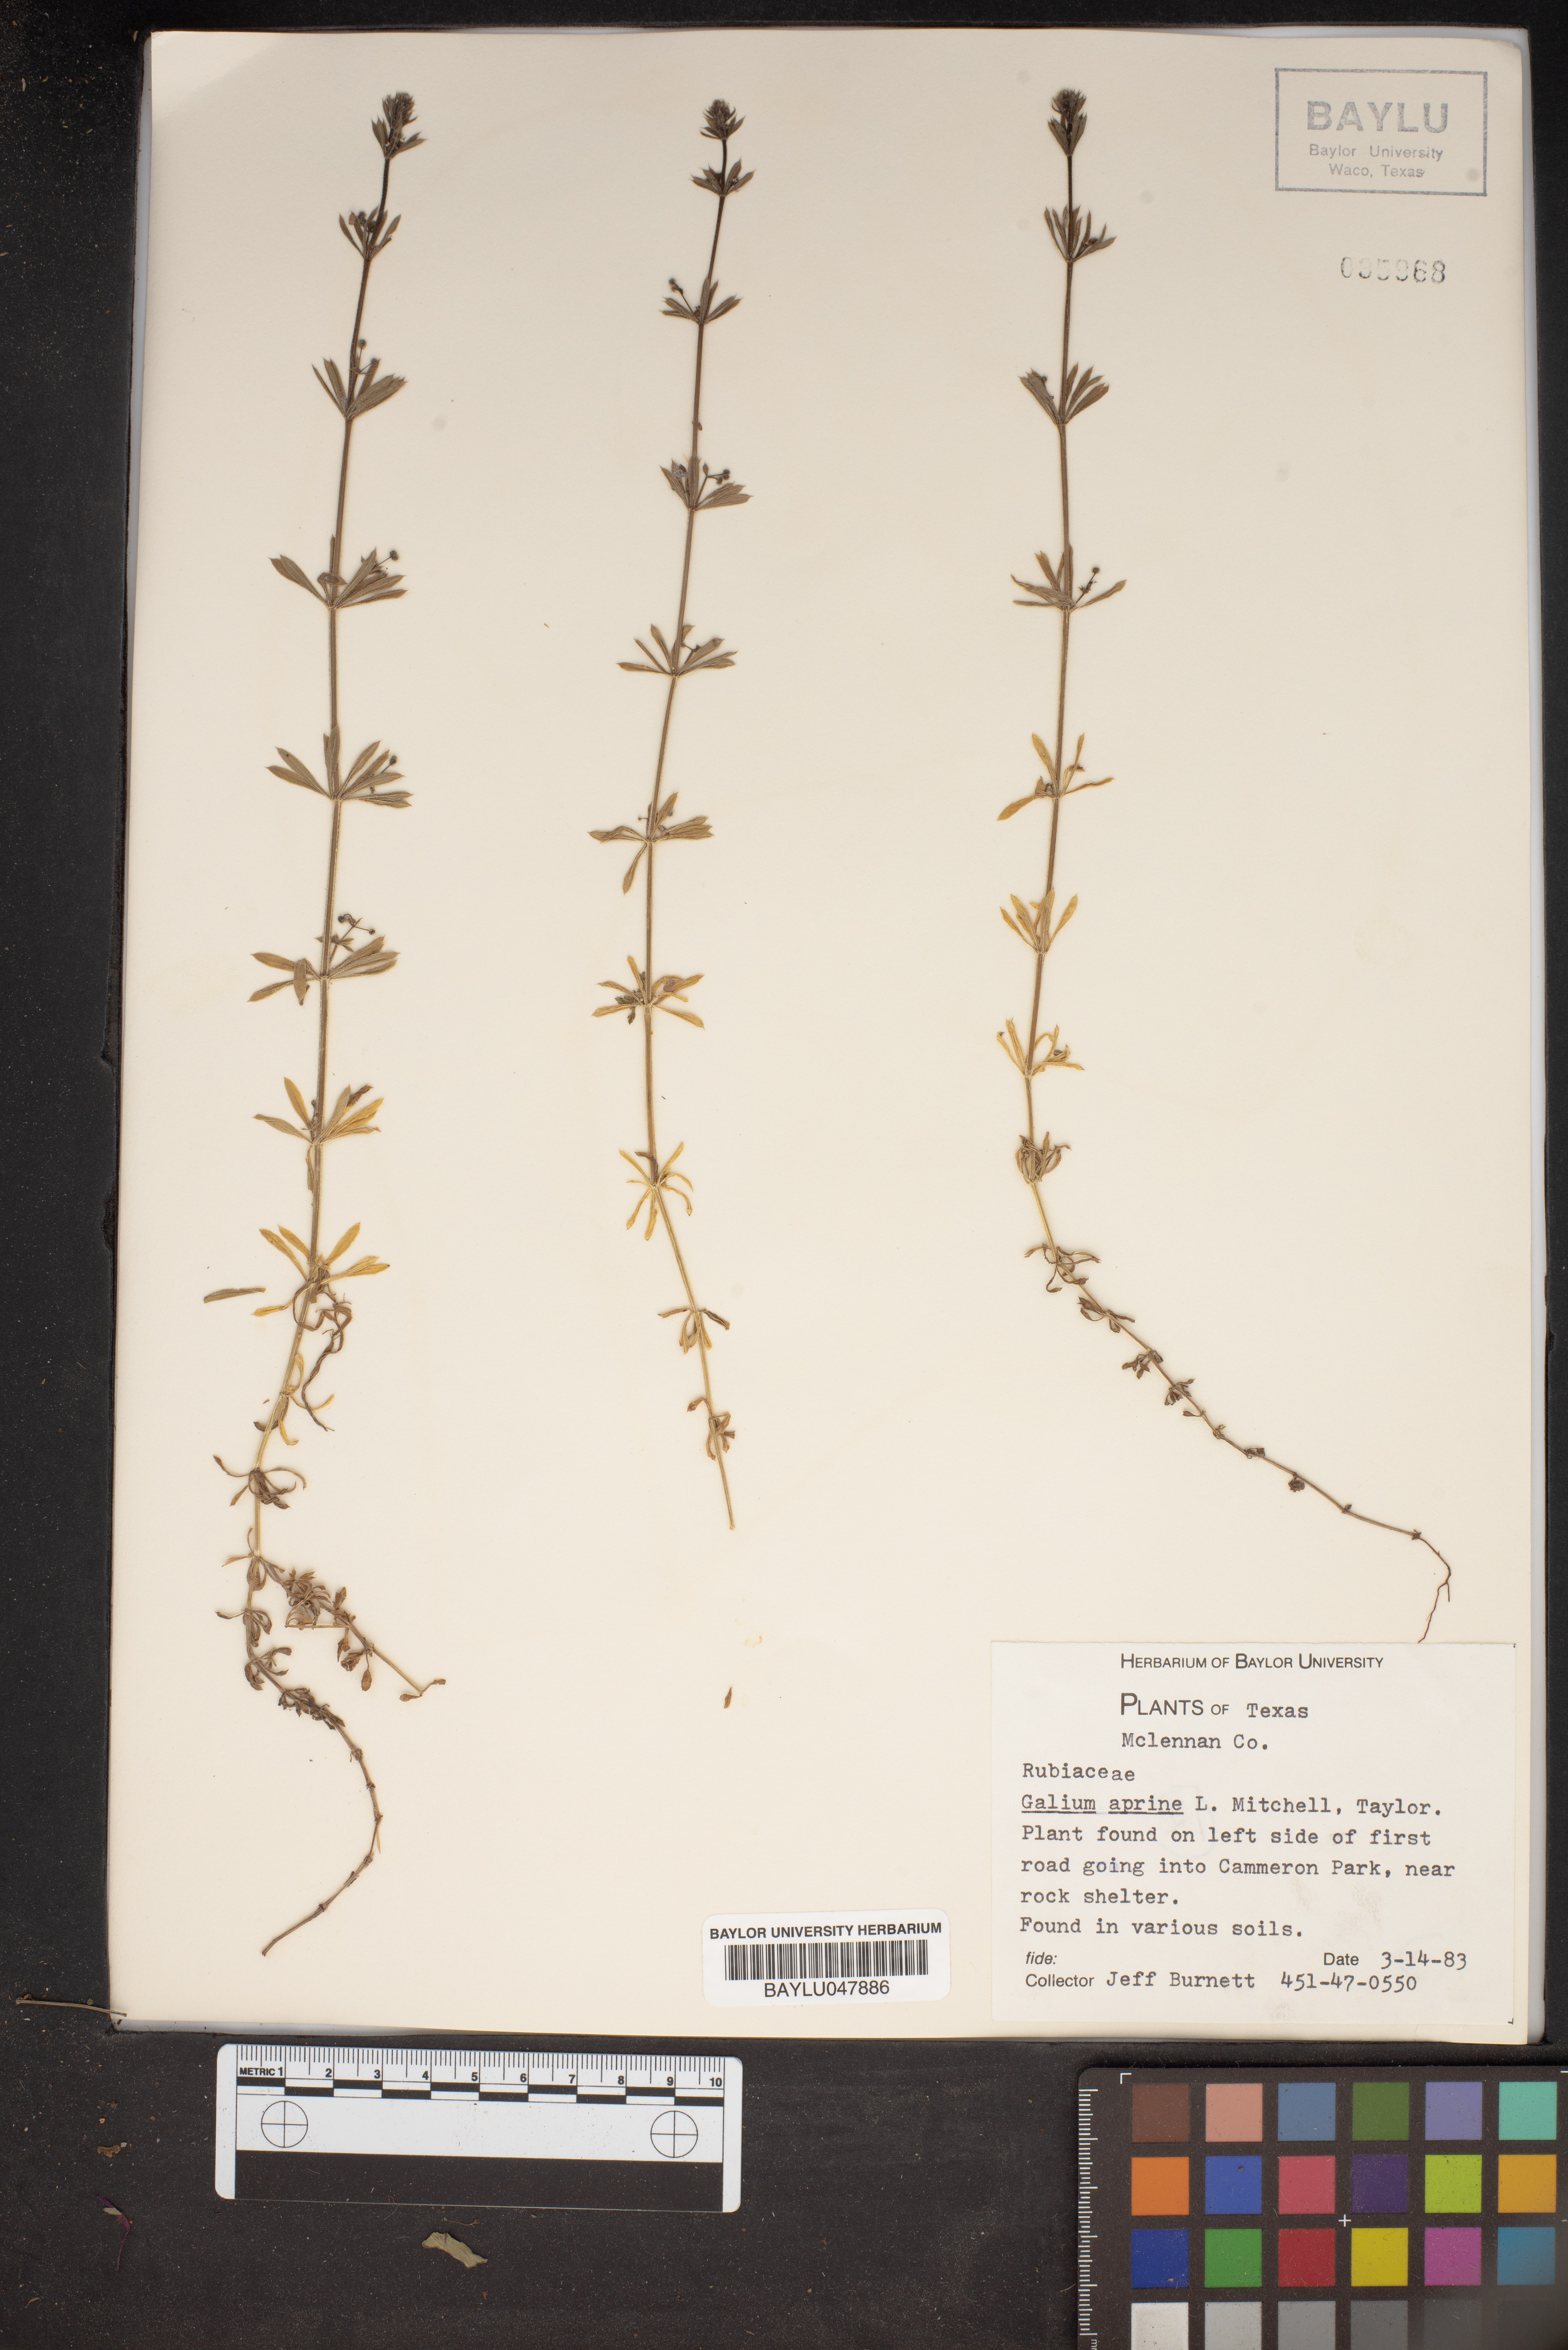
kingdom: Plantae
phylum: Tracheophyta
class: Magnoliopsida
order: Gentianales
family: Rubiaceae
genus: Galium
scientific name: Galium aparine
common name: Cleavers
